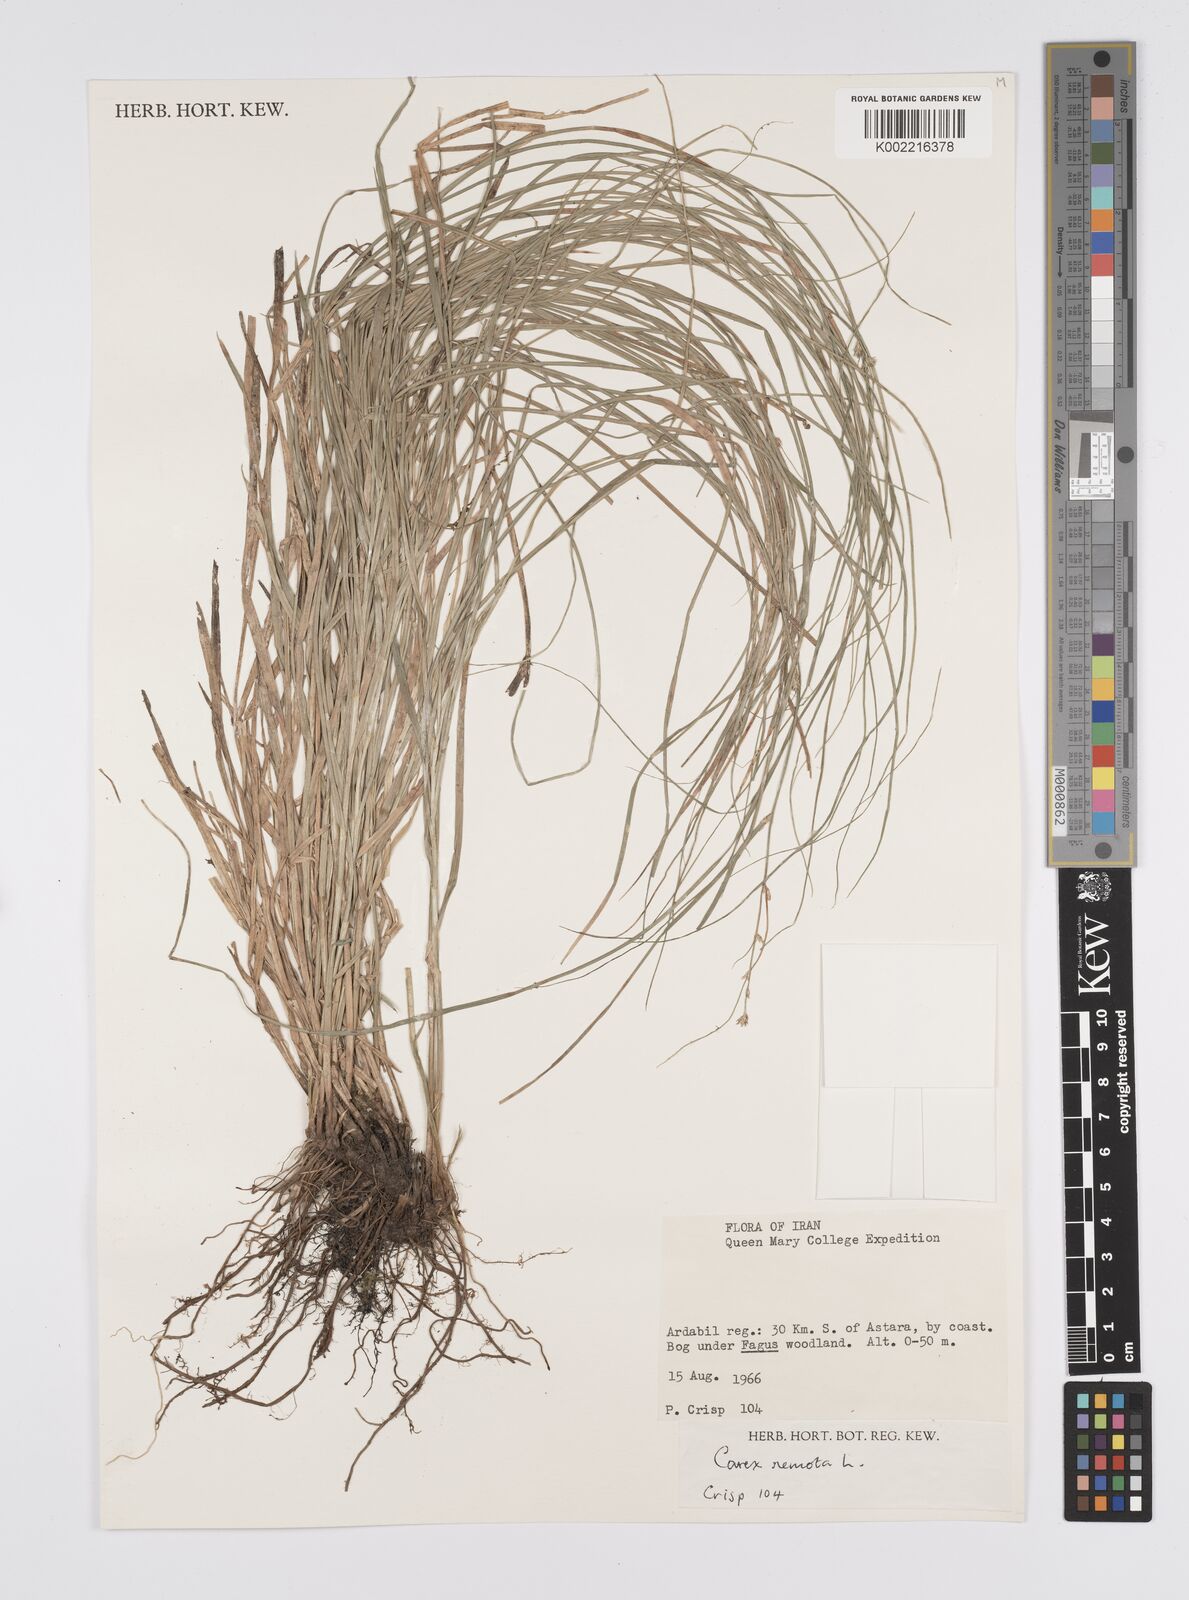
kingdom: Plantae
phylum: Tracheophyta
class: Liliopsida
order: Poales
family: Cyperaceae
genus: Carex
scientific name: Carex remota
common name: Remote sedge
